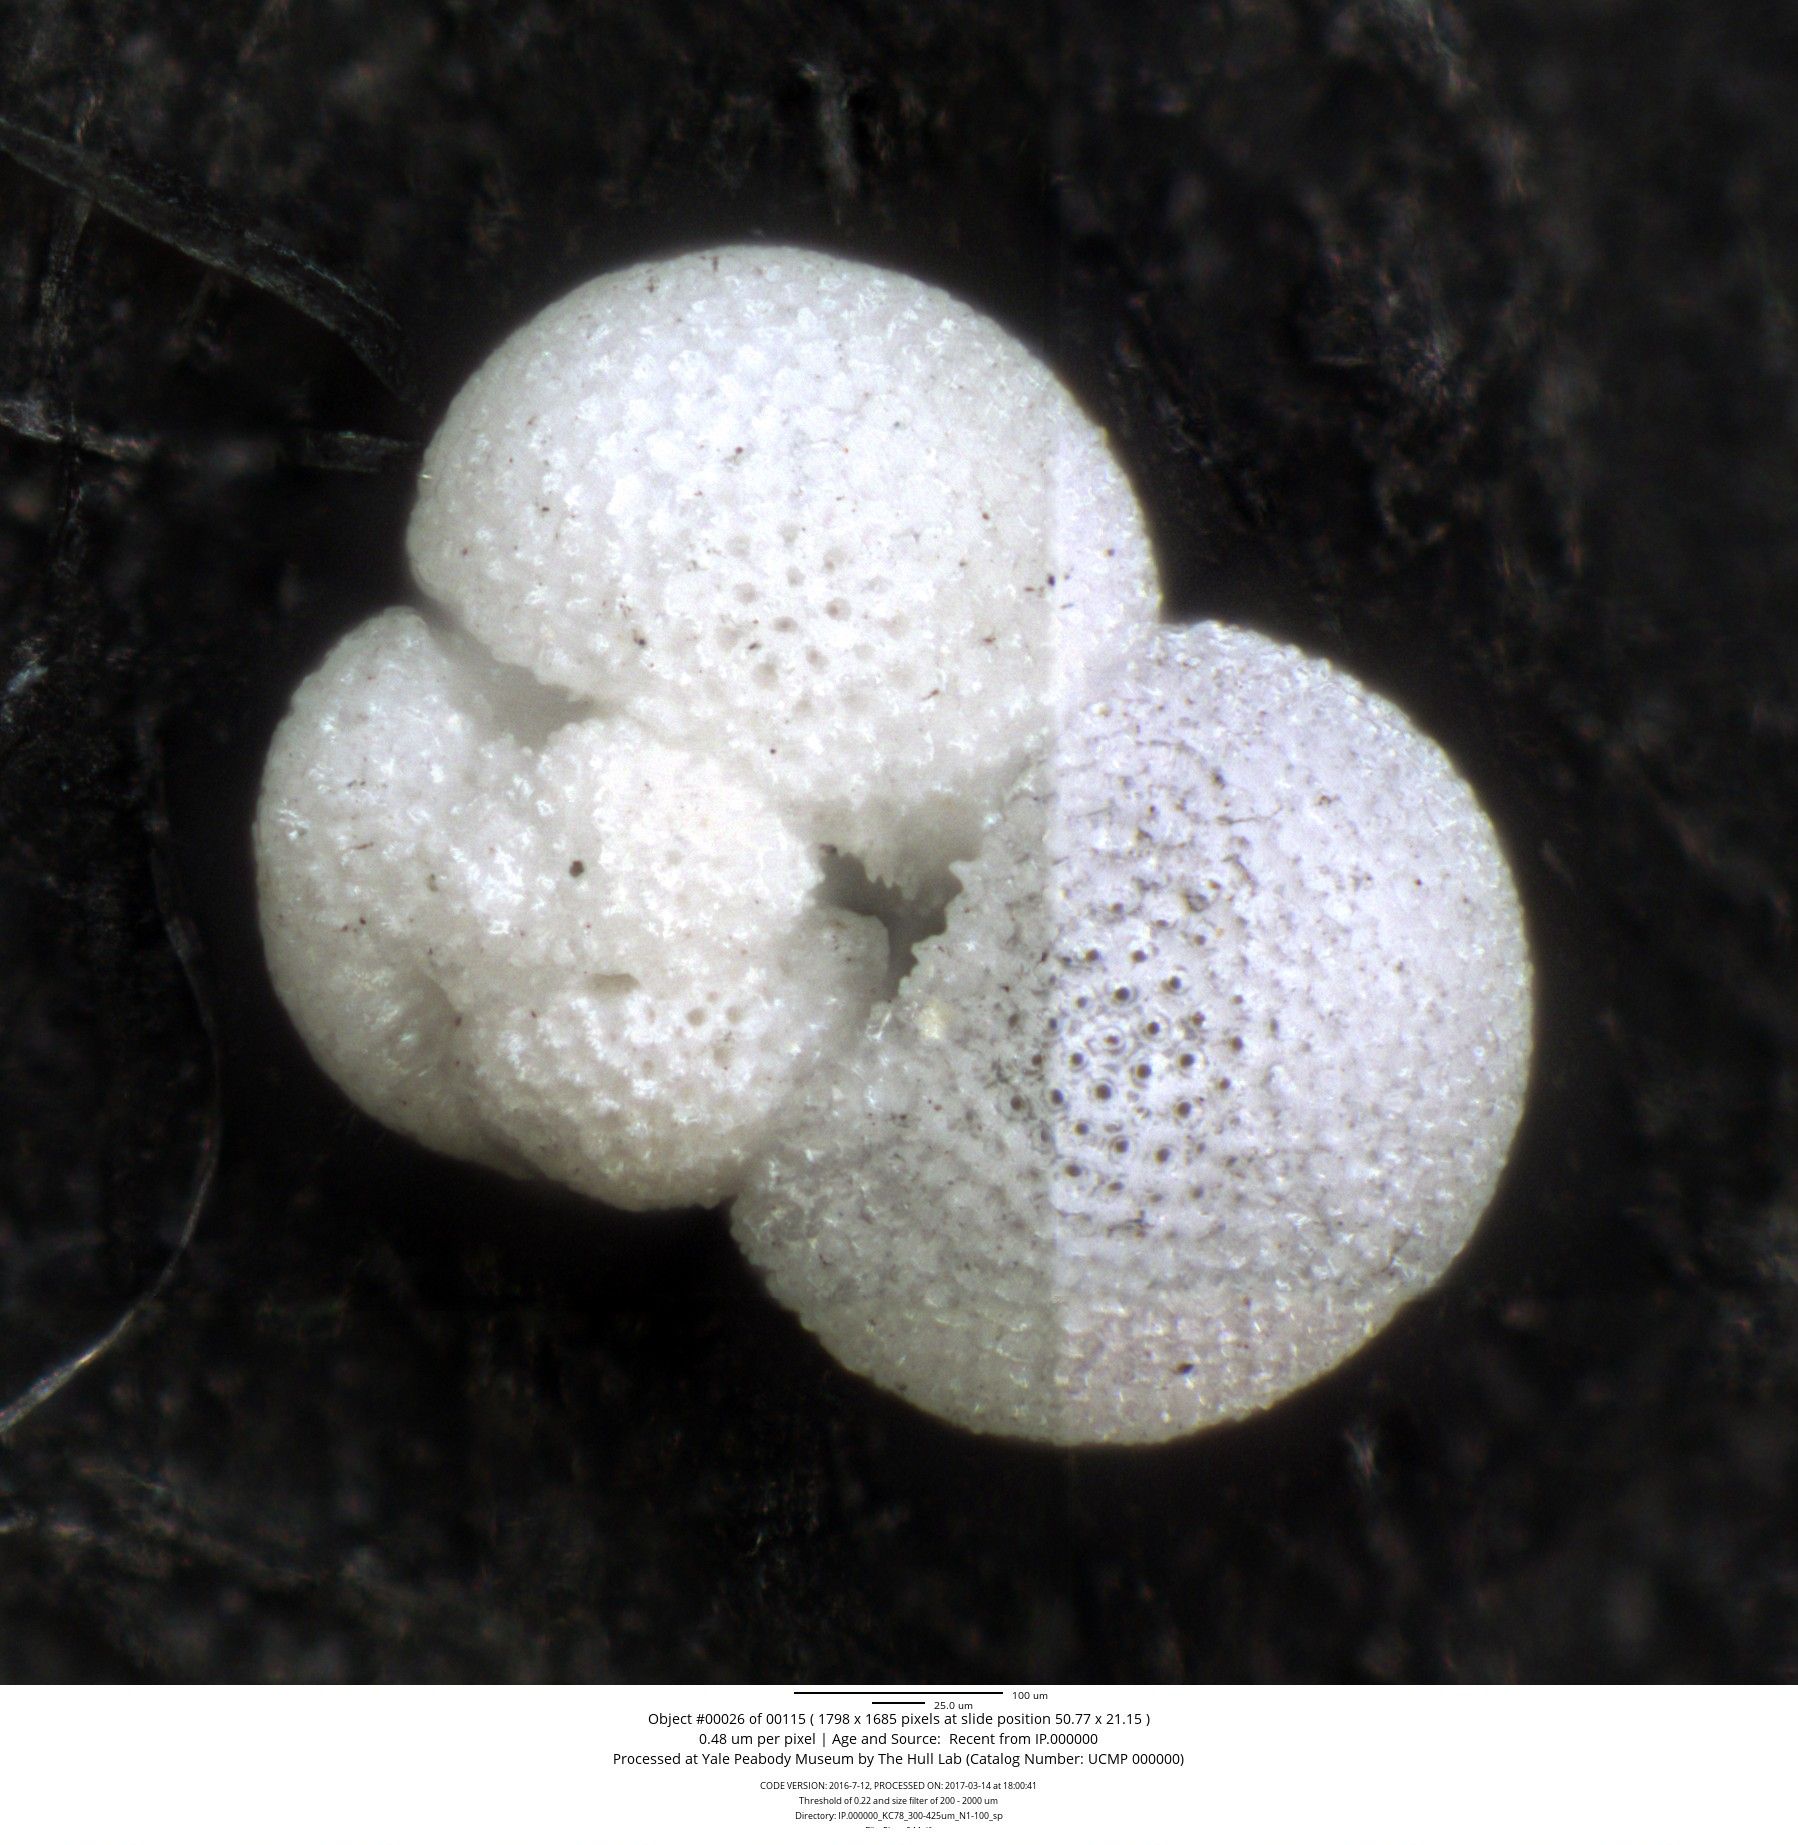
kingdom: Chromista
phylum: Foraminifera
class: Globothalamea
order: Rotaliida
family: Globigerinidae
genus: Globigerinoides
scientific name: Globigerinoides sacculifer
